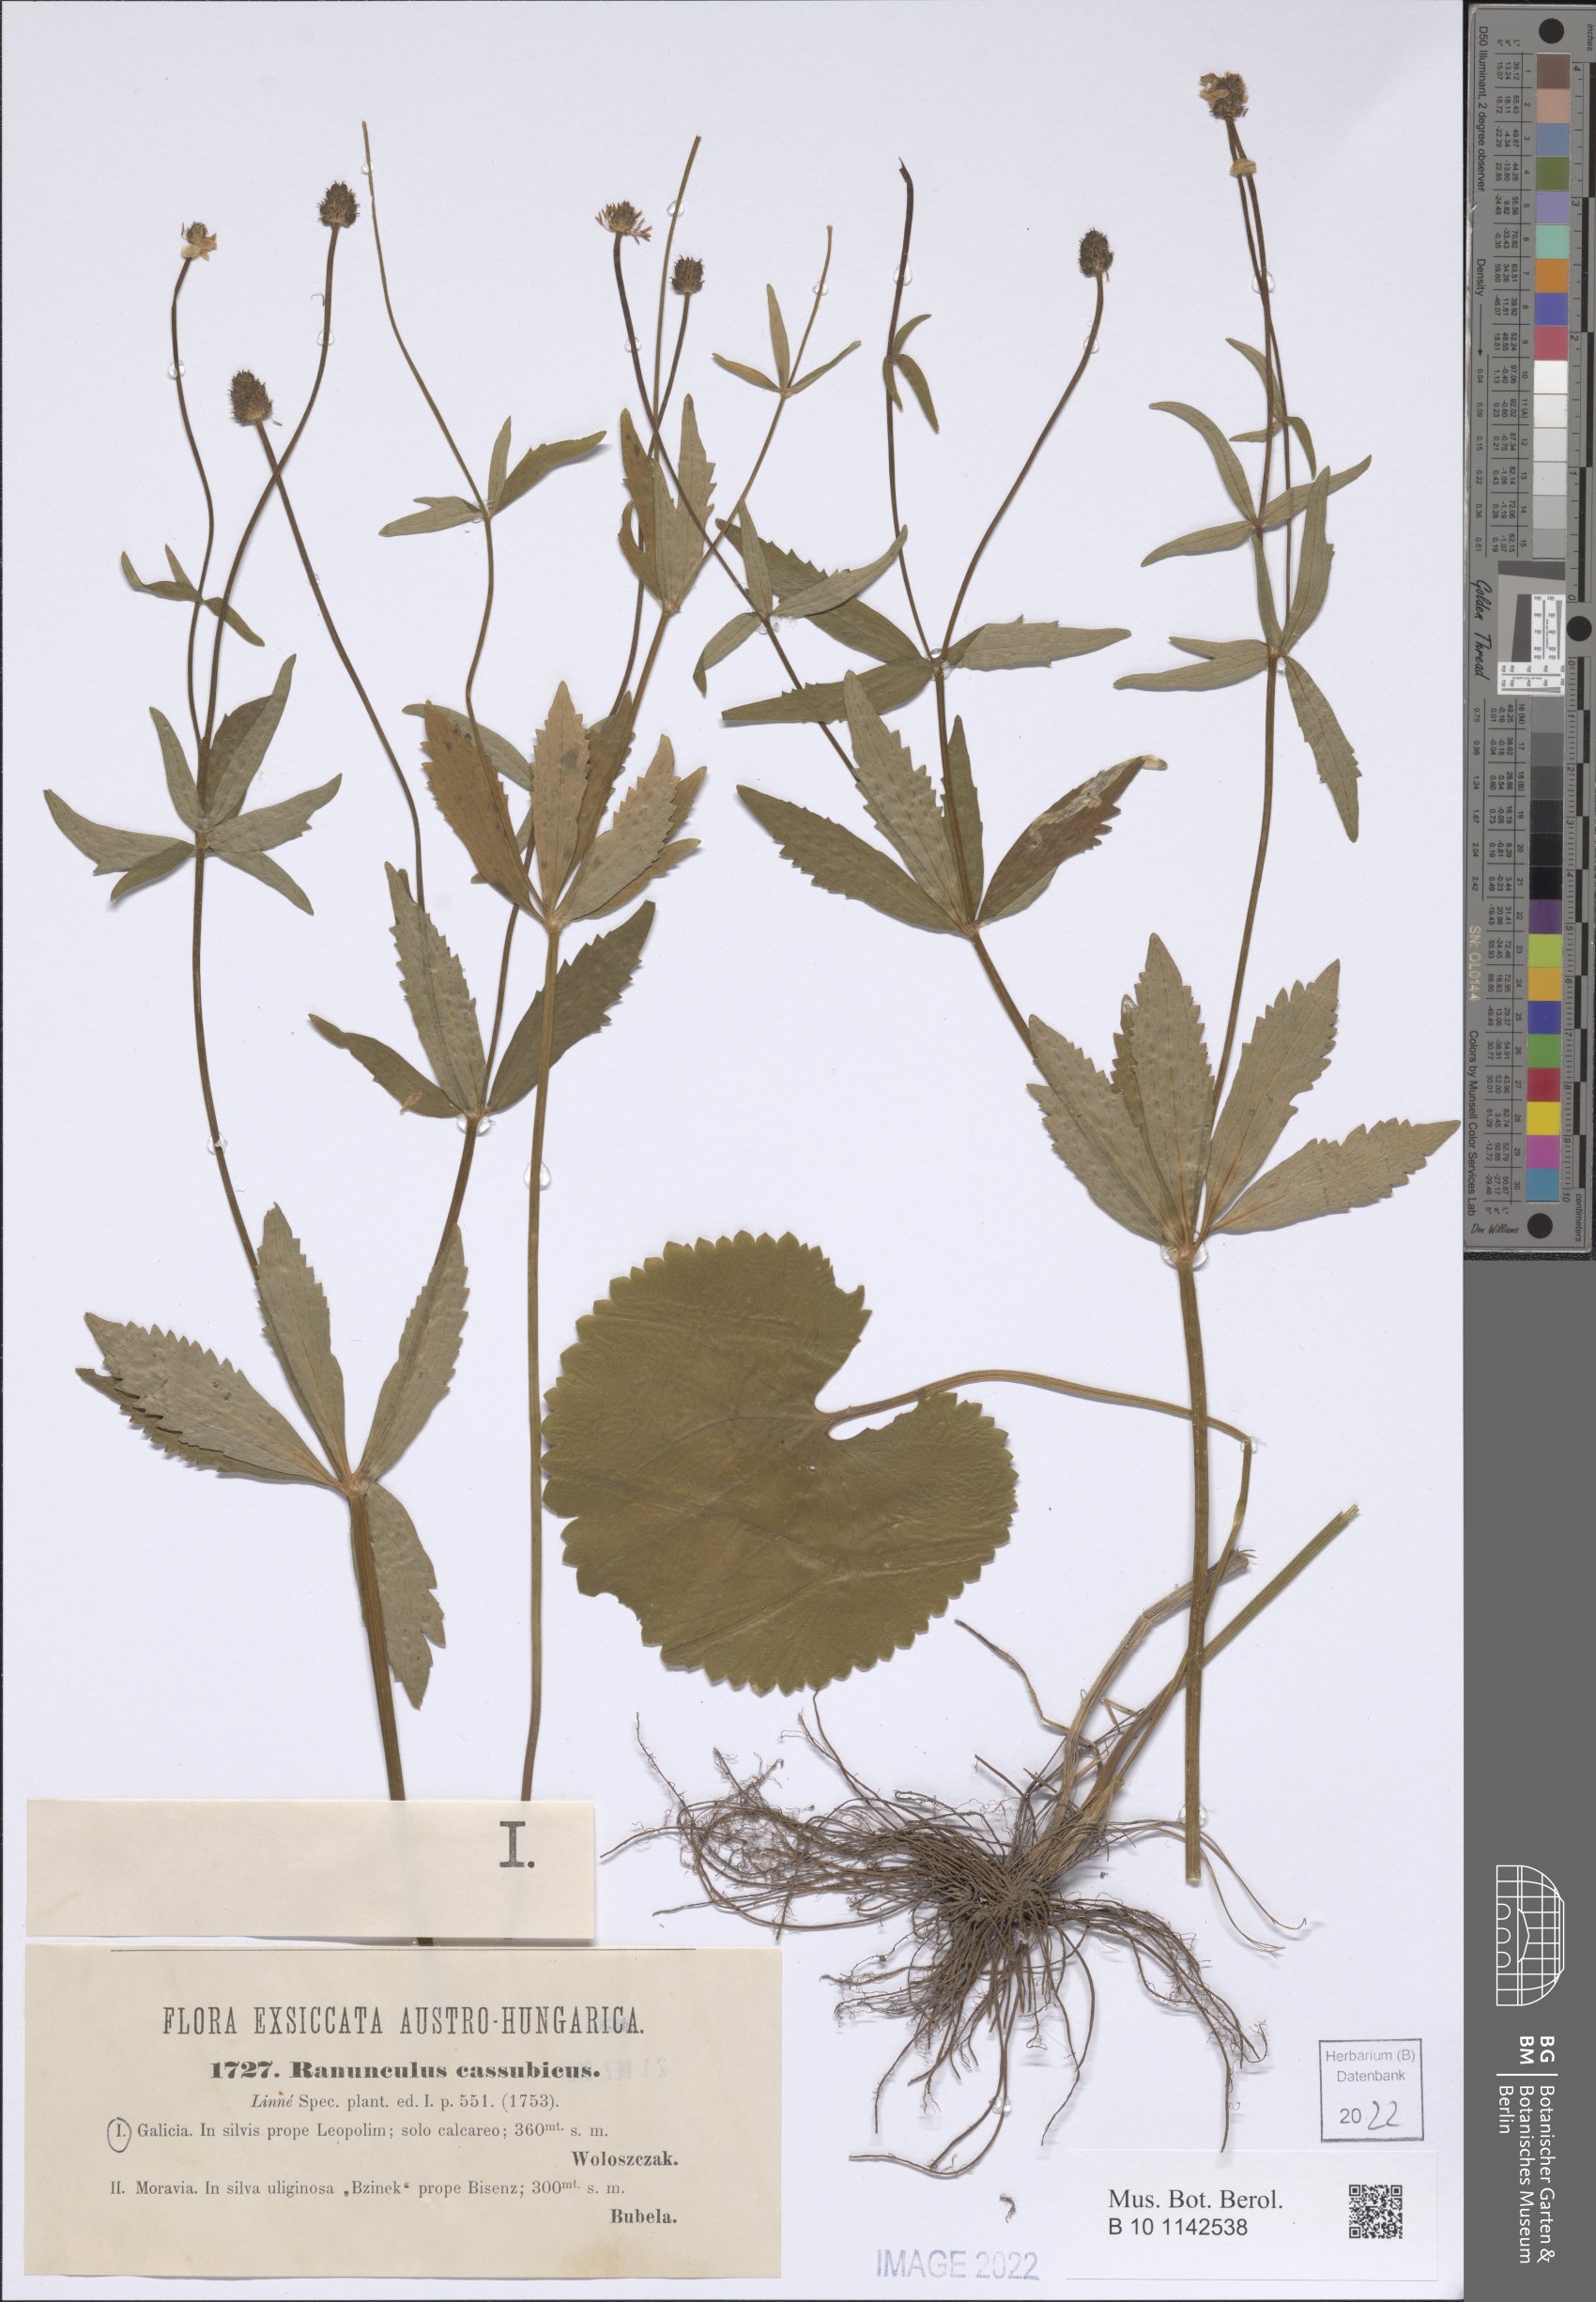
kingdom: Plantae
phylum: Tracheophyta
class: Magnoliopsida
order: Ranunculales
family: Ranunculaceae
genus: Ranunculus
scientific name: Ranunculus cassubicus
